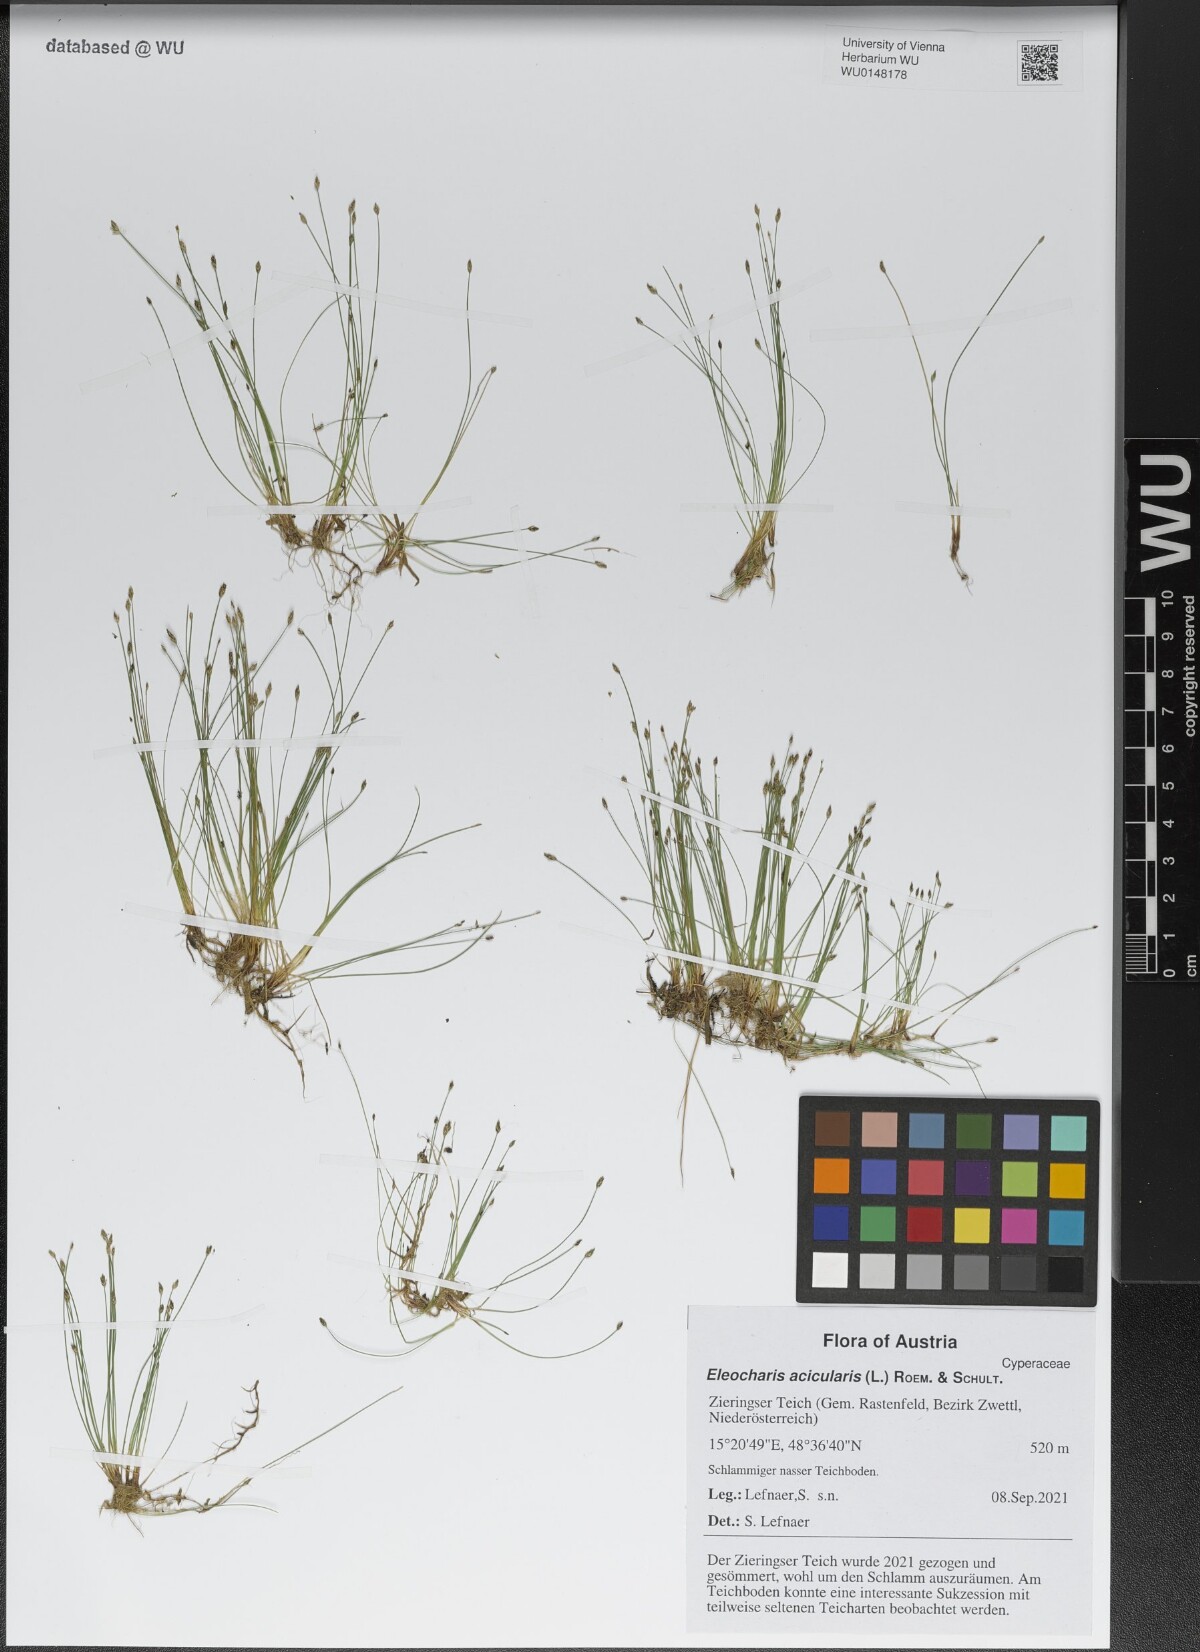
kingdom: Plantae
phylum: Tracheophyta
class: Liliopsida
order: Poales
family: Cyperaceae
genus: Eleocharis
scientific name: Eleocharis acicularis
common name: Needle spike-rush
